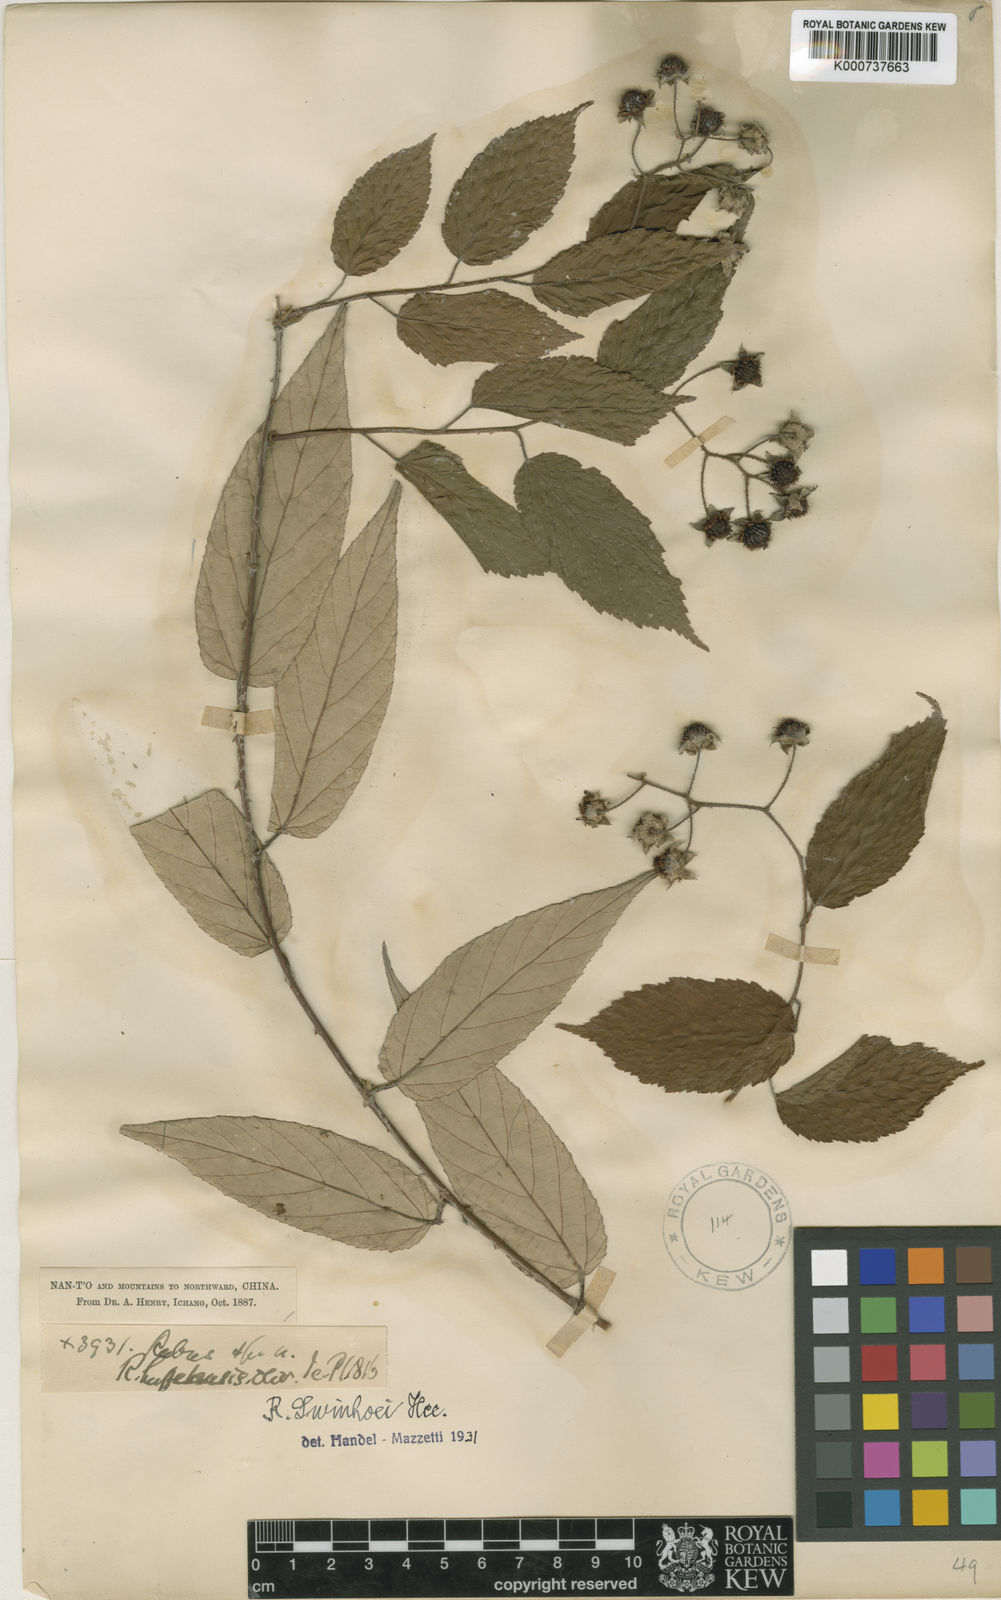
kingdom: Plantae
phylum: Tracheophyta
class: Magnoliopsida
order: Rosales
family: Rosaceae
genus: Rubus
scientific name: Rubus swinhoei
